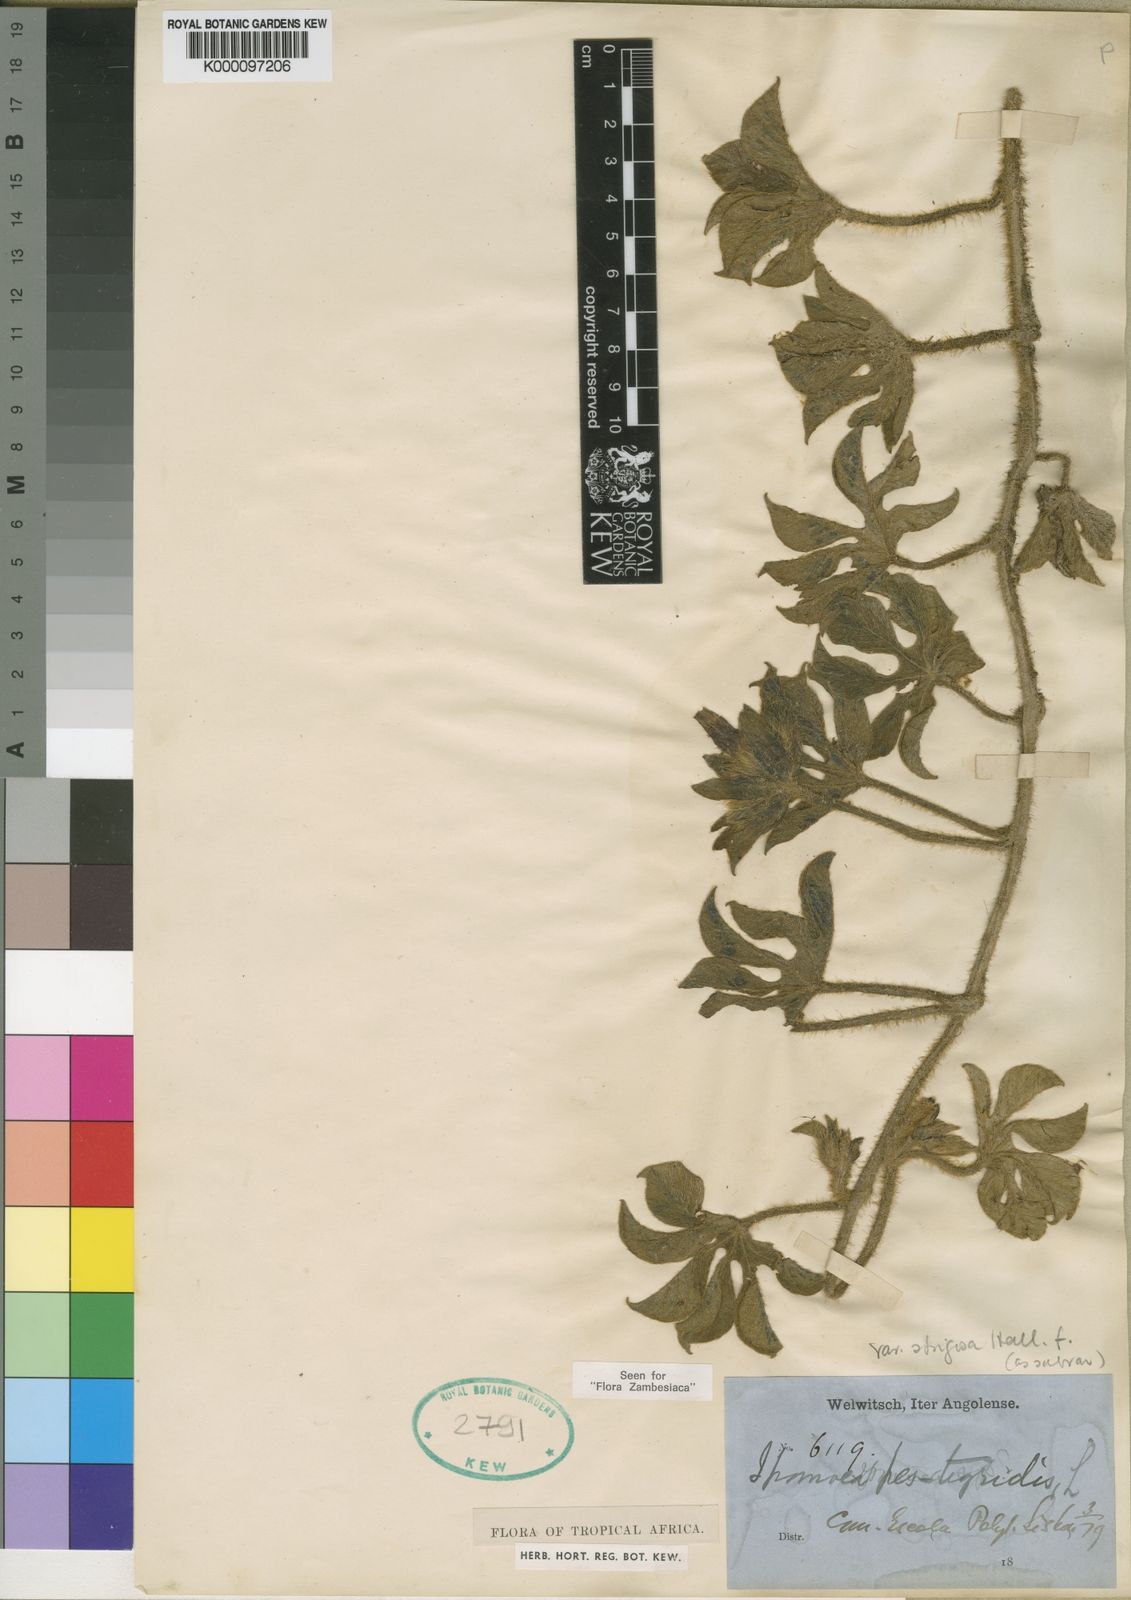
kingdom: Plantae
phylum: Tracheophyta
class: Magnoliopsida
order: Solanales
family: Convolvulaceae
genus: Ipomoea
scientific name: Ipomoea pes-tigridis
